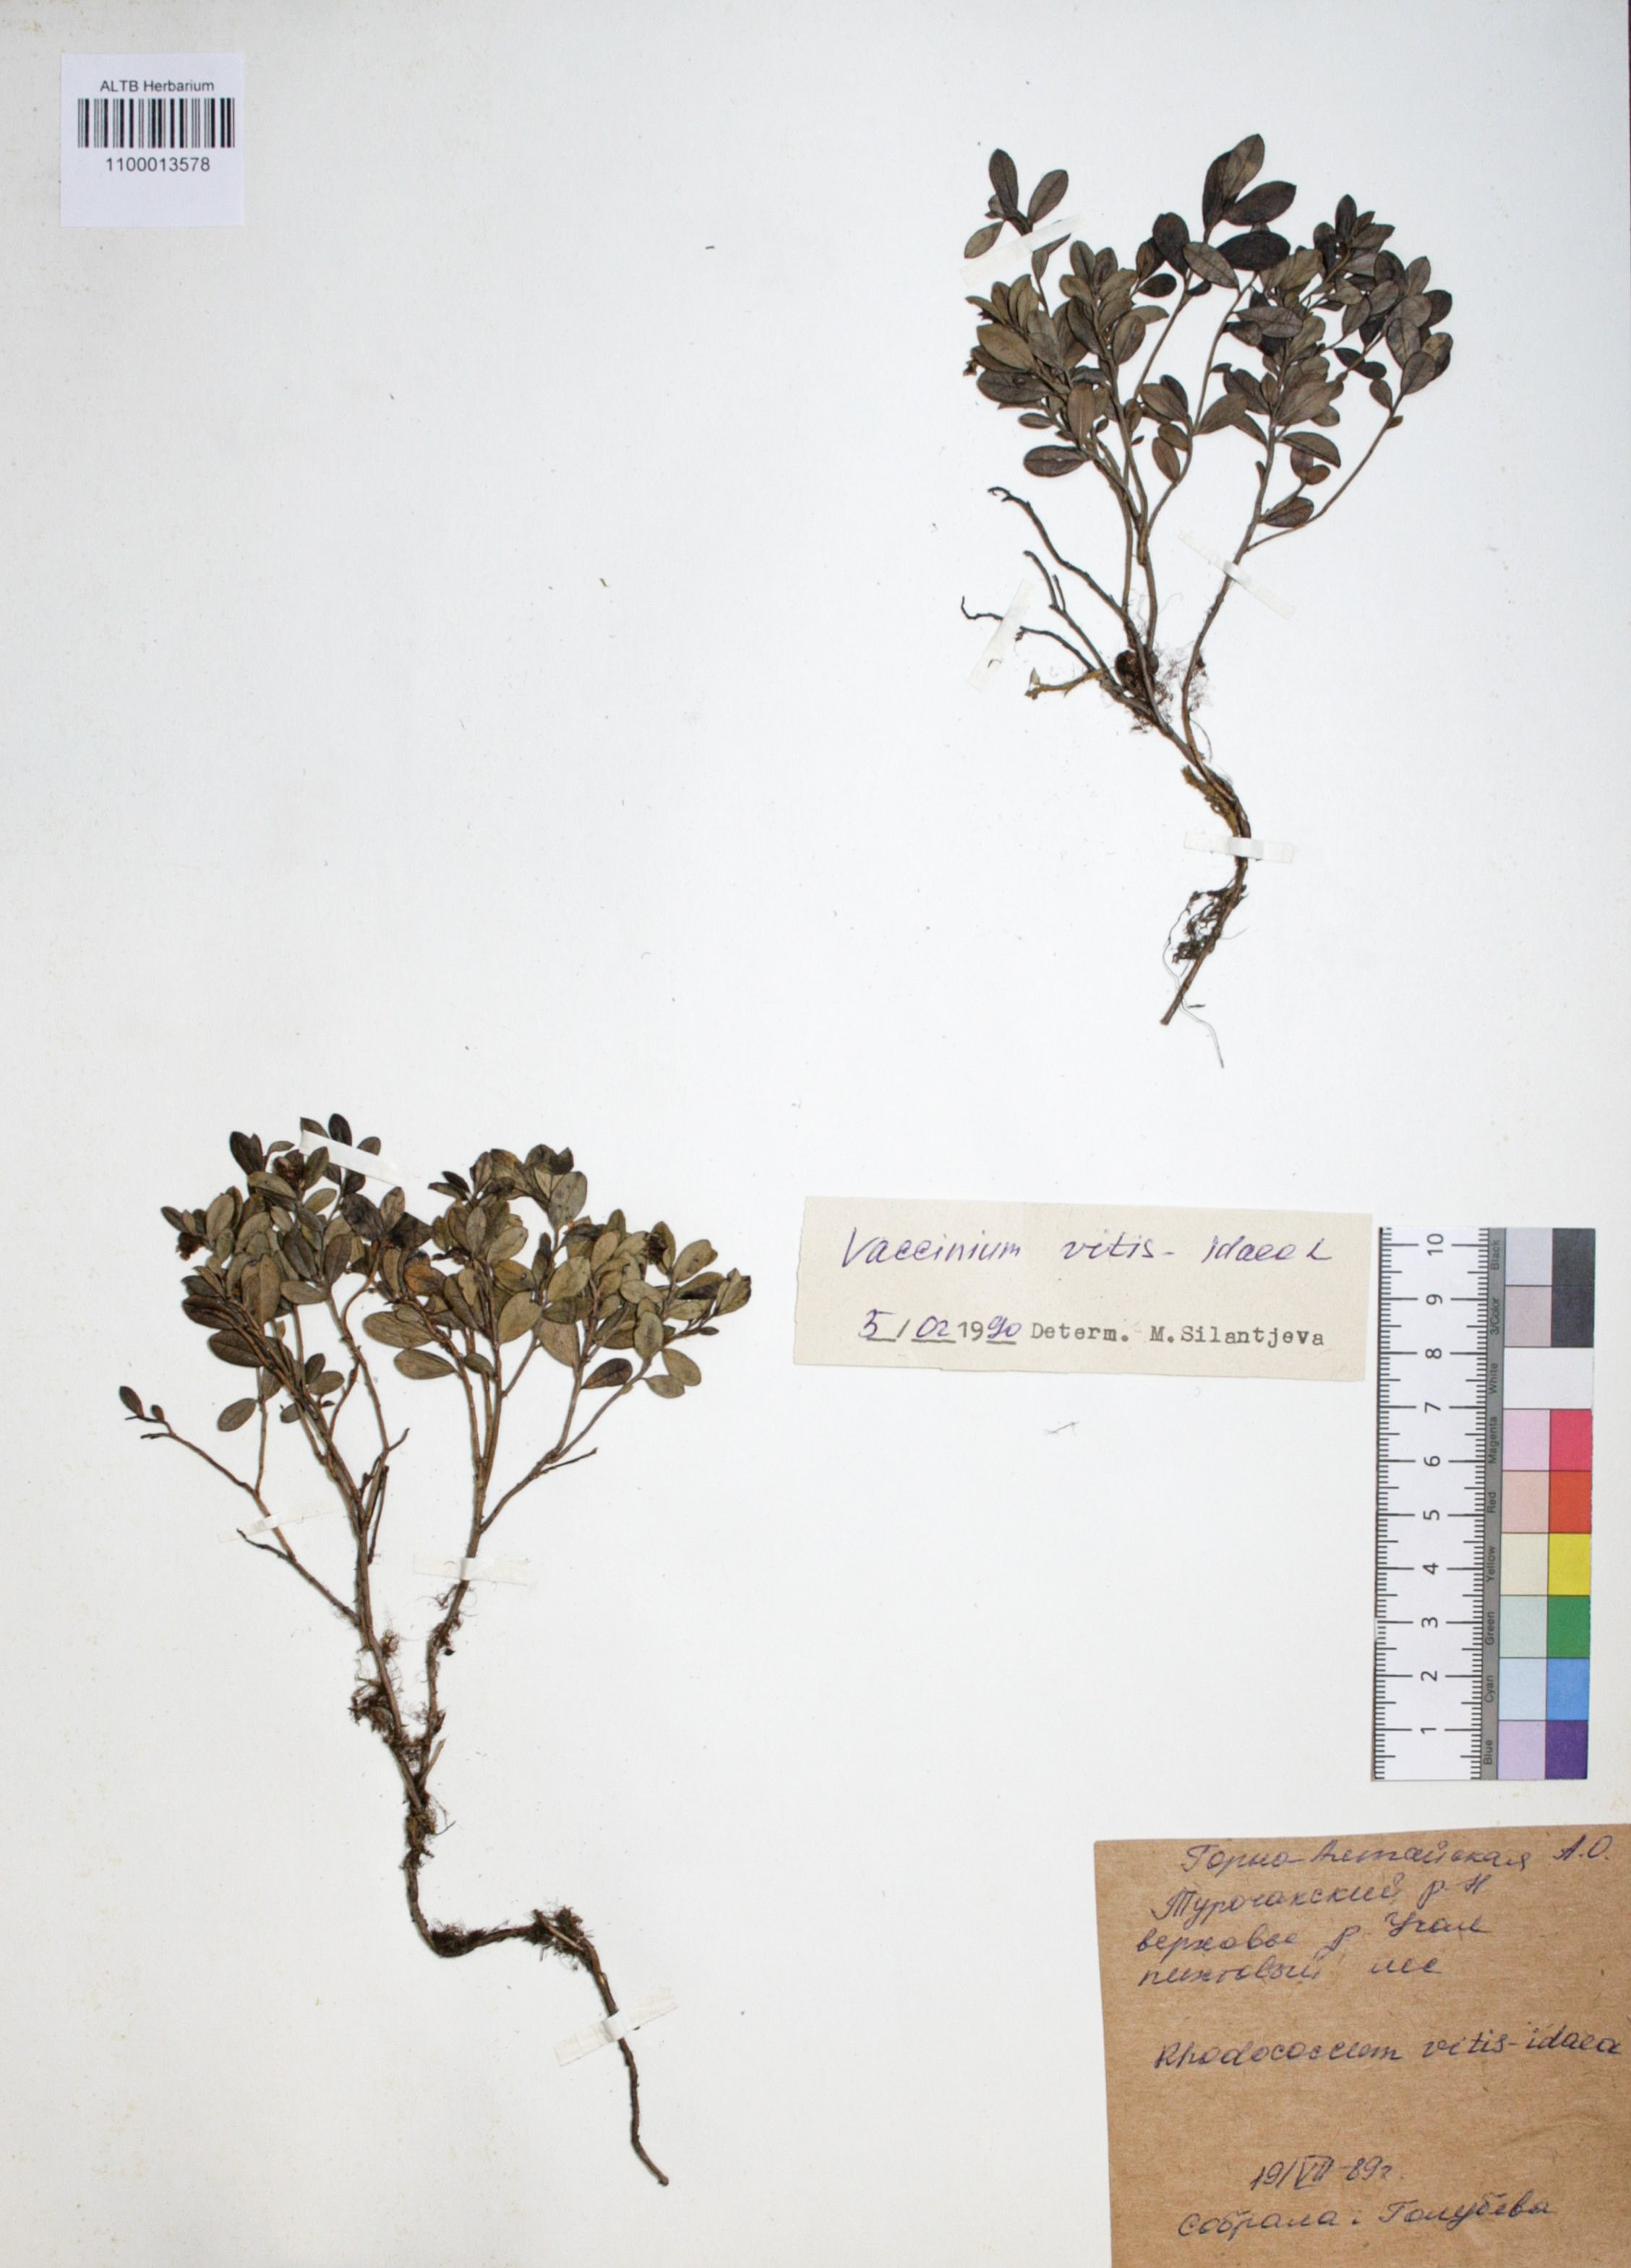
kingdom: Plantae
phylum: Tracheophyta
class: Magnoliopsida
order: Ericales
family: Ericaceae
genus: Vaccinium
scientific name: Vaccinium vitis-idaea
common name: Cowberry
